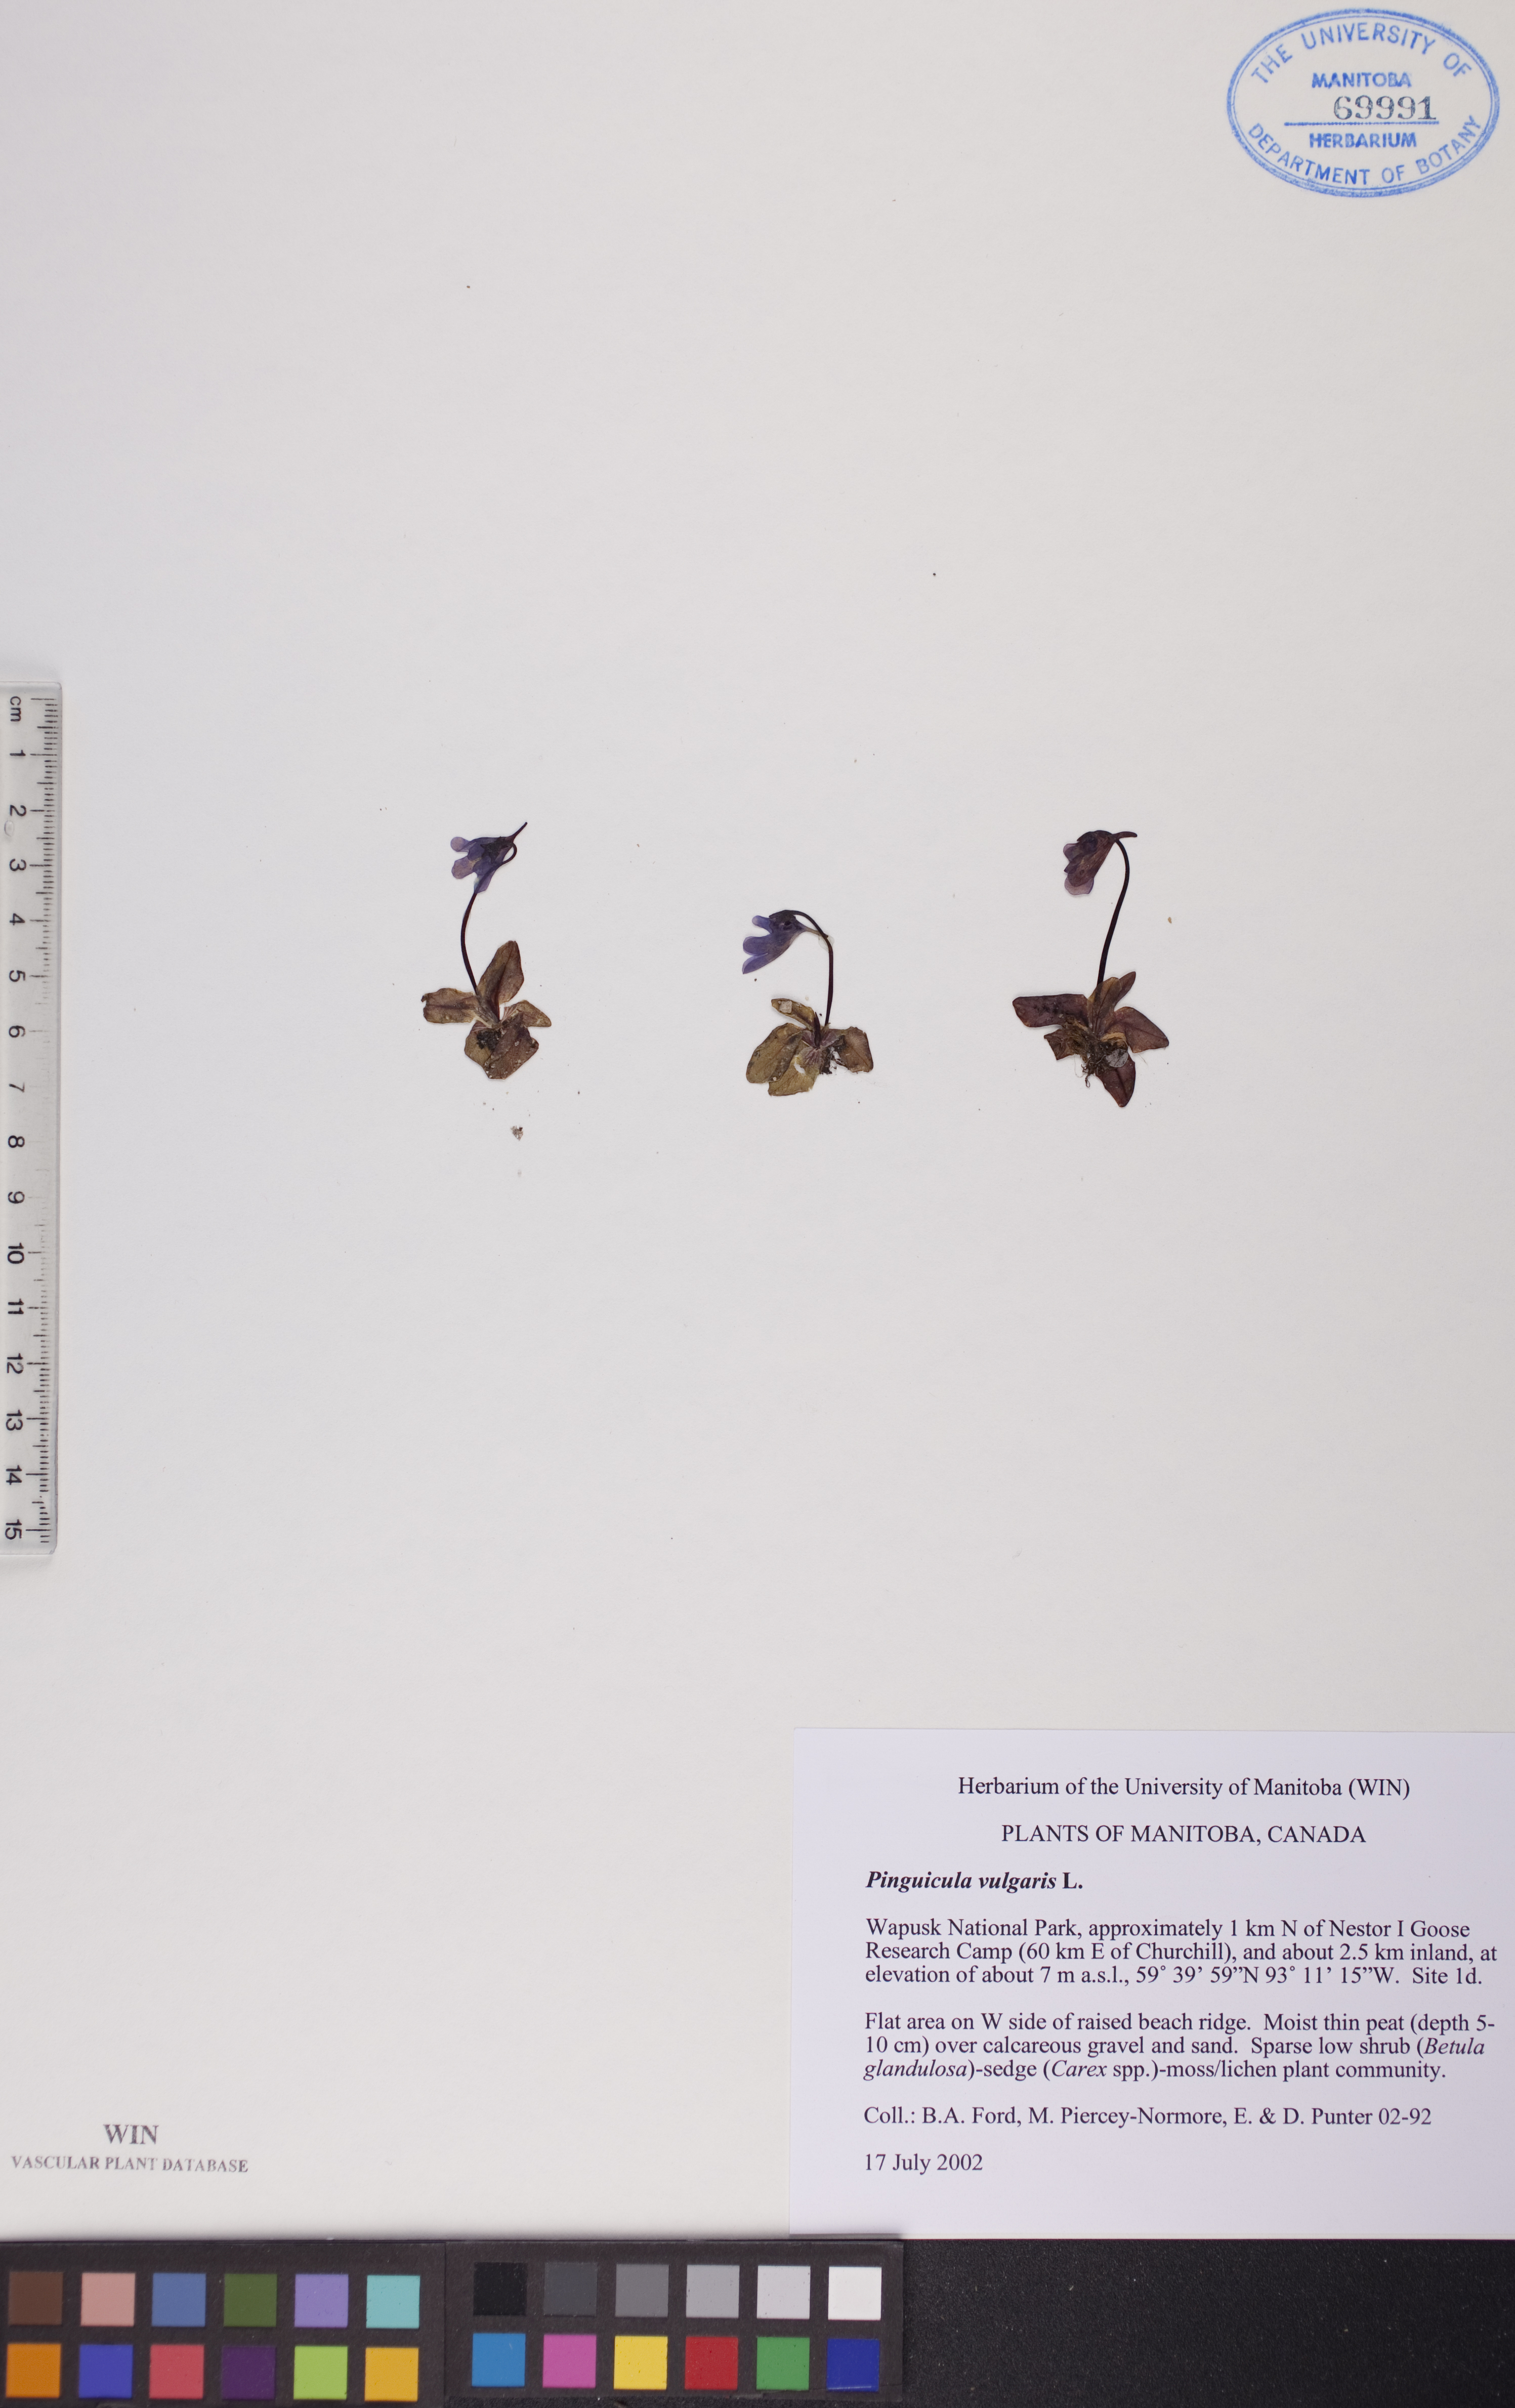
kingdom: Plantae
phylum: Tracheophyta
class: Magnoliopsida
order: Lamiales
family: Lentibulariaceae
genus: Pinguicula
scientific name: Pinguicula vulgaris
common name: Common butterwort
